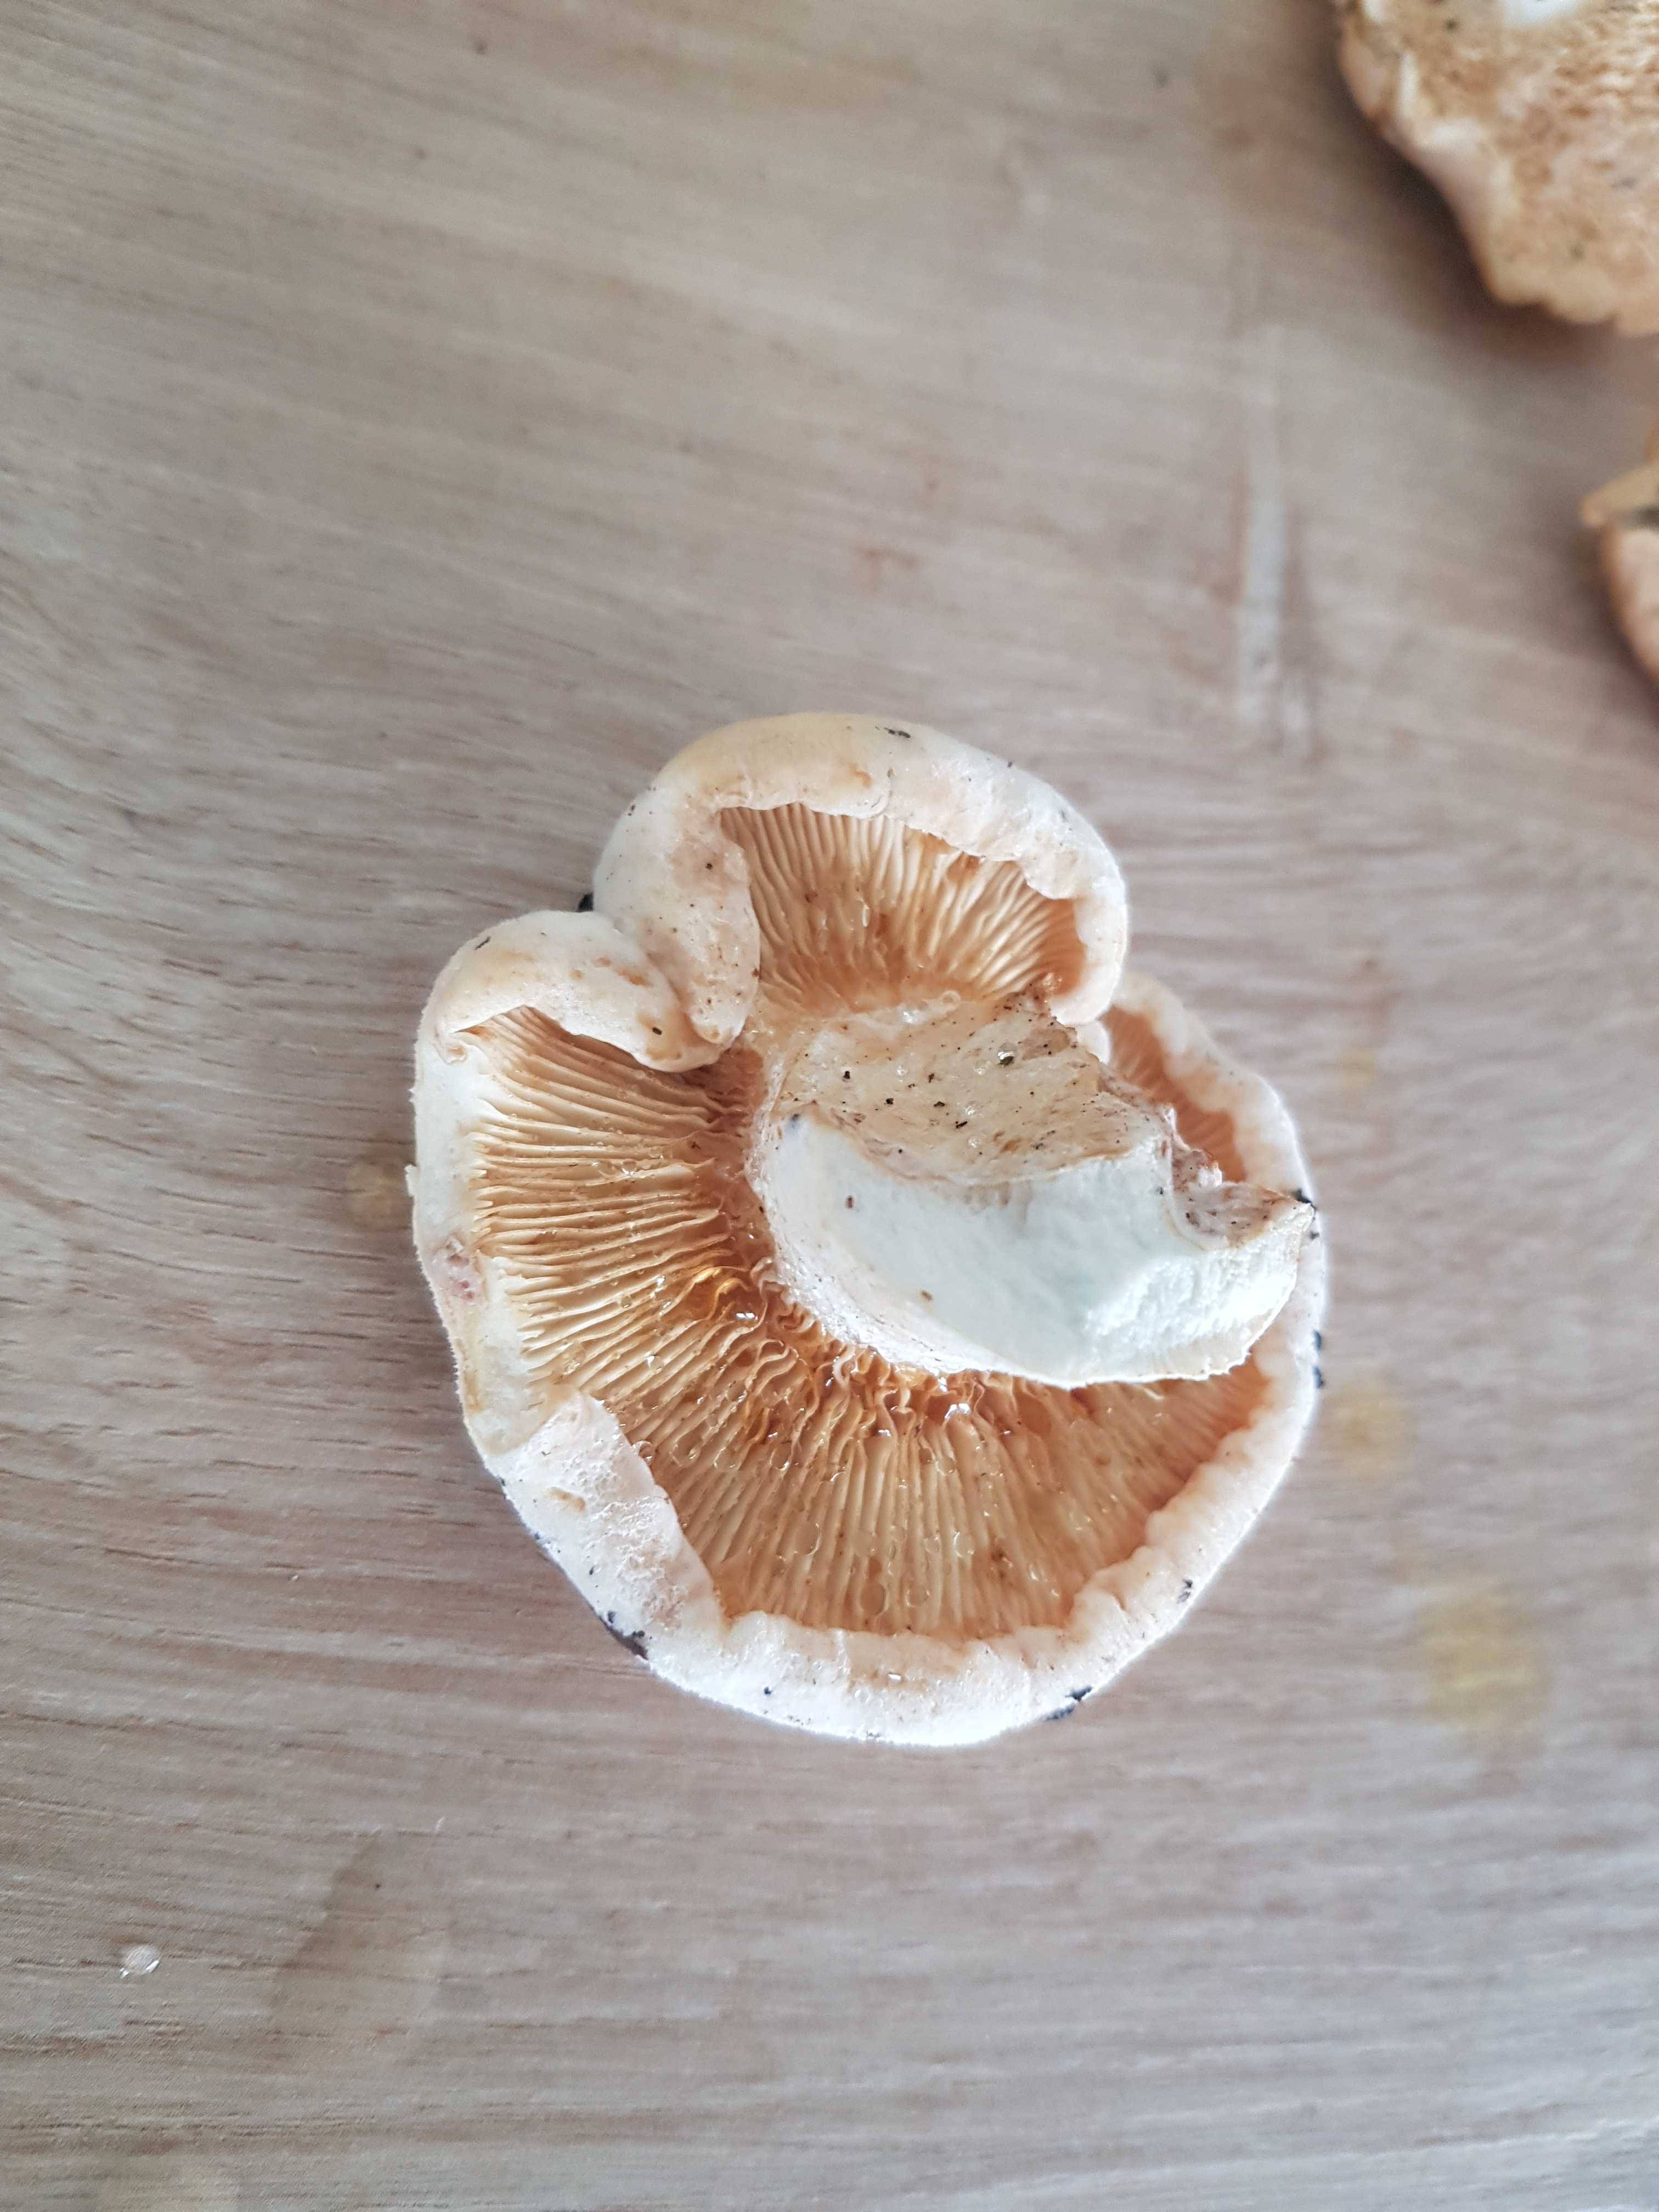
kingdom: Fungi
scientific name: Fungi
